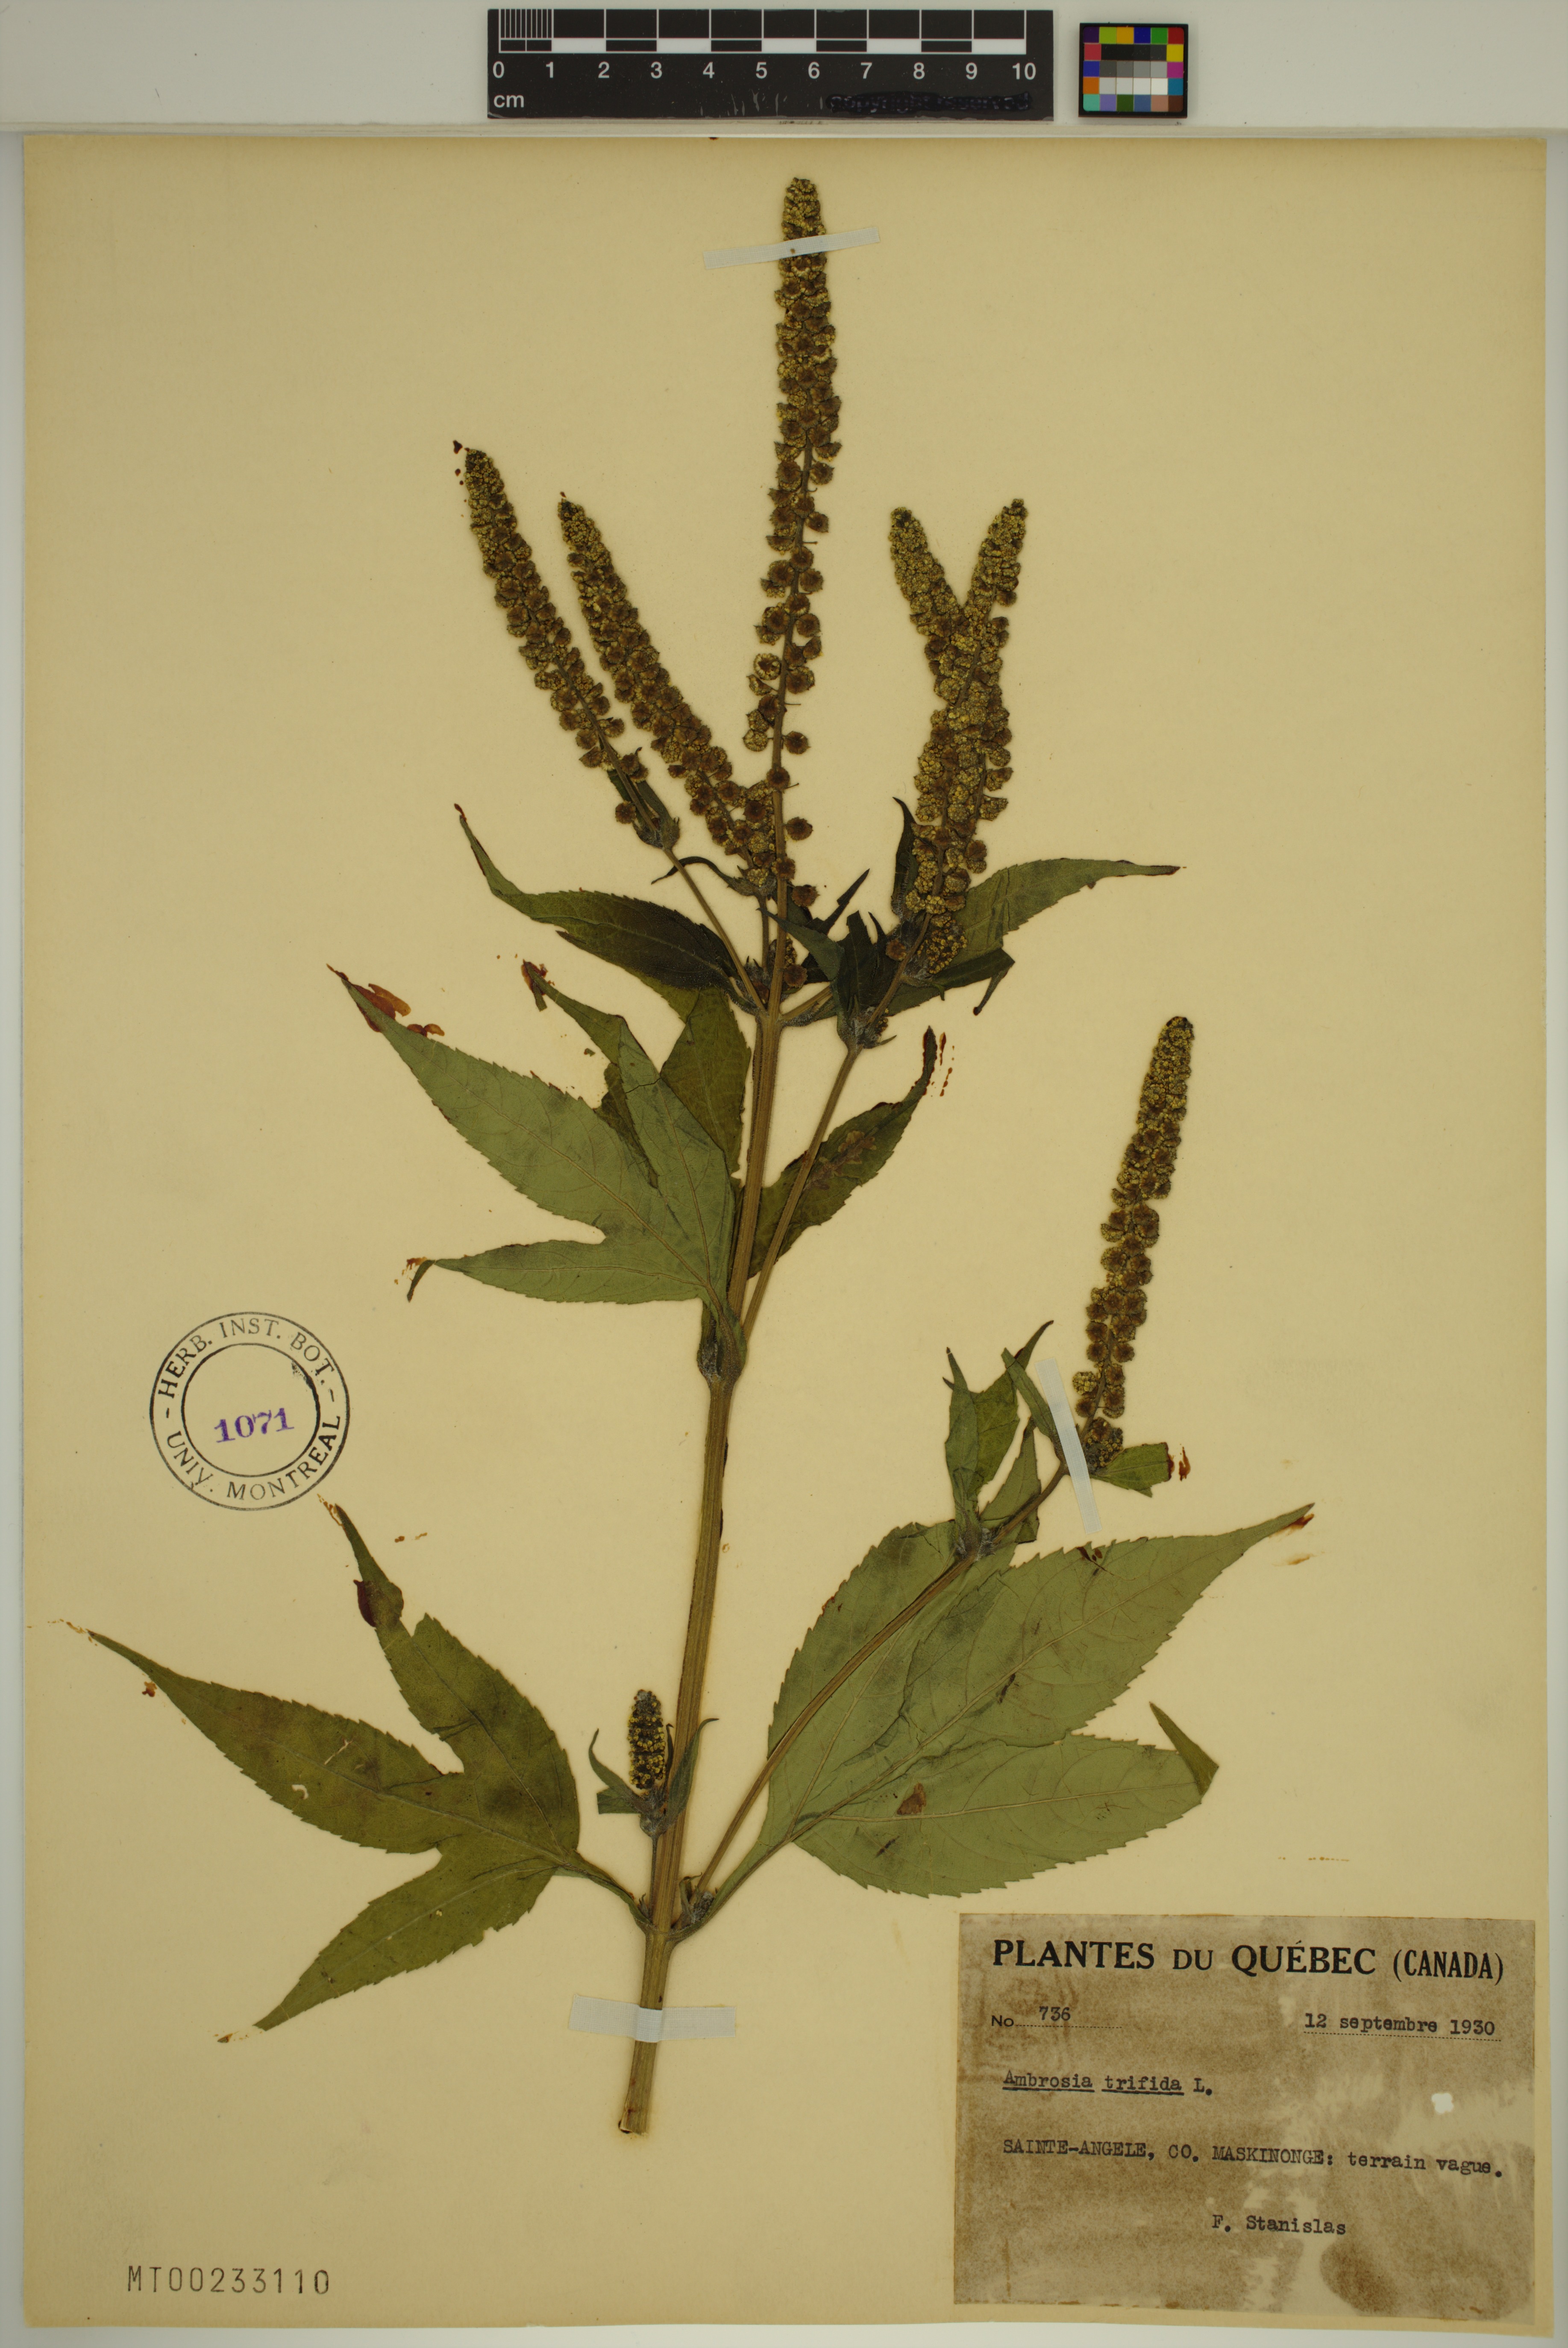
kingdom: Plantae
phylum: Tracheophyta
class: Magnoliopsida
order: Asterales
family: Asteraceae
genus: Ambrosia
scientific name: Ambrosia trifida
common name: Giant ragweed
